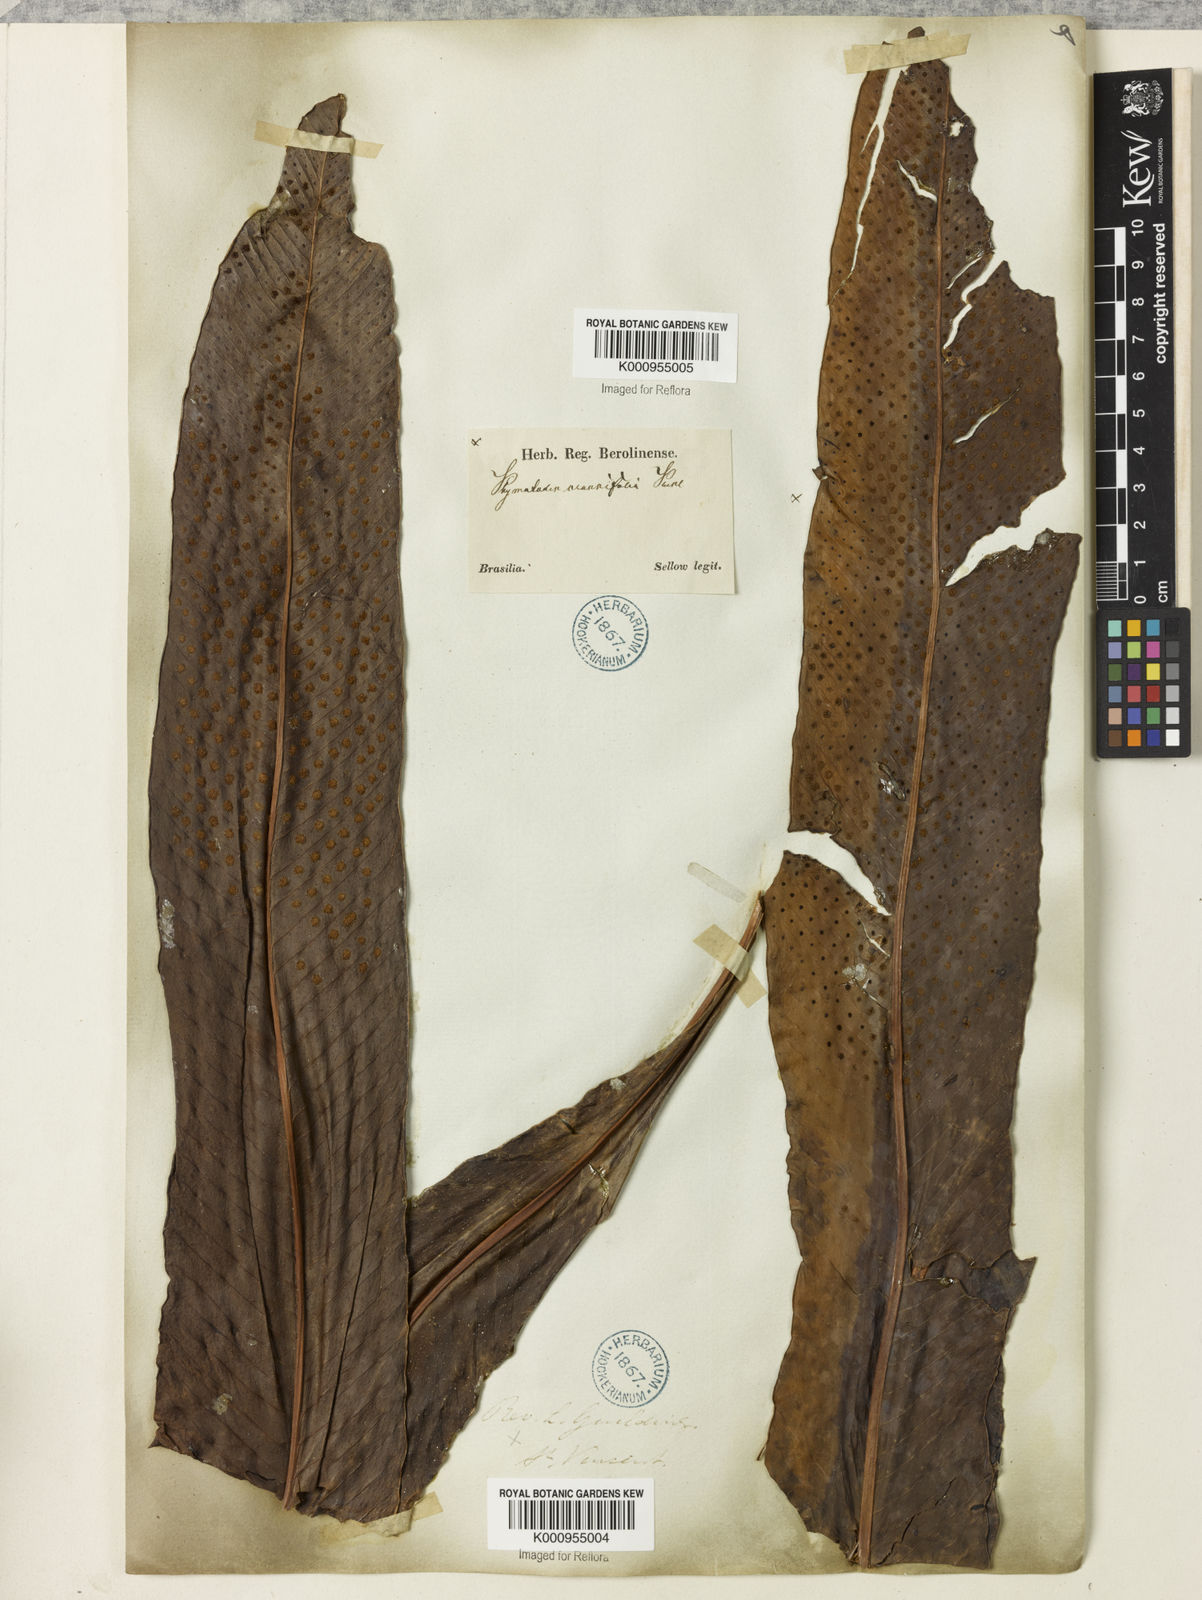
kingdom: Plantae
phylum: Tracheophyta
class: Polypodiopsida
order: Polypodiales
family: Polypodiaceae
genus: Niphidium
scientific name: Niphidium crassifolium
